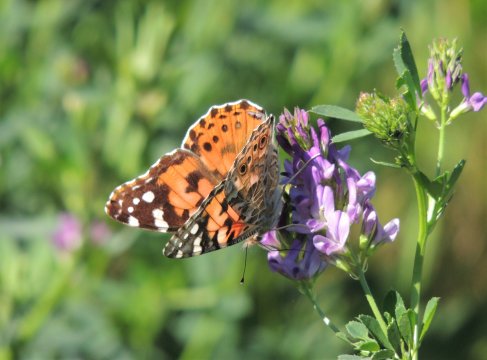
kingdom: Animalia
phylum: Arthropoda
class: Insecta
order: Lepidoptera
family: Nymphalidae
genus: Vanessa
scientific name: Vanessa cardui
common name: Painted Lady
